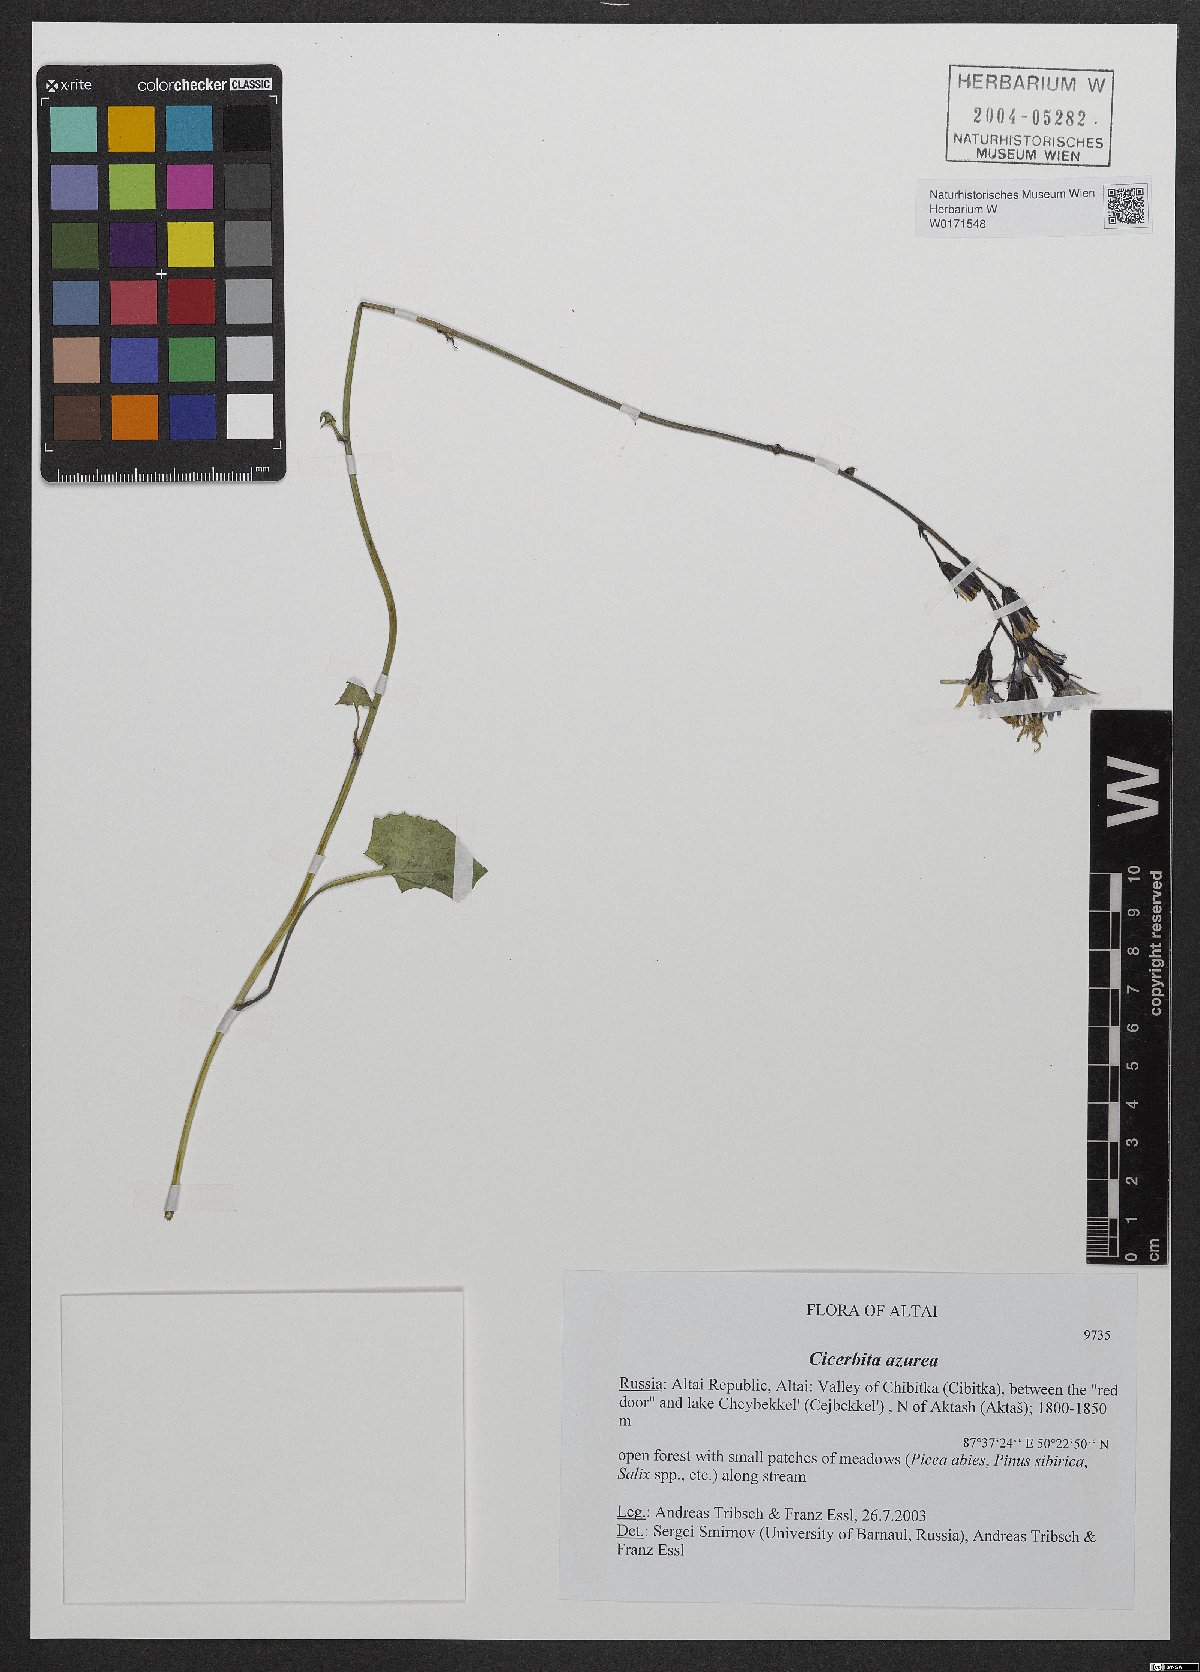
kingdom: Plantae
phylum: Tracheophyta
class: Magnoliopsida
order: Asterales
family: Asteraceae
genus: Cicerbita
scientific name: Cicerbita azurea
